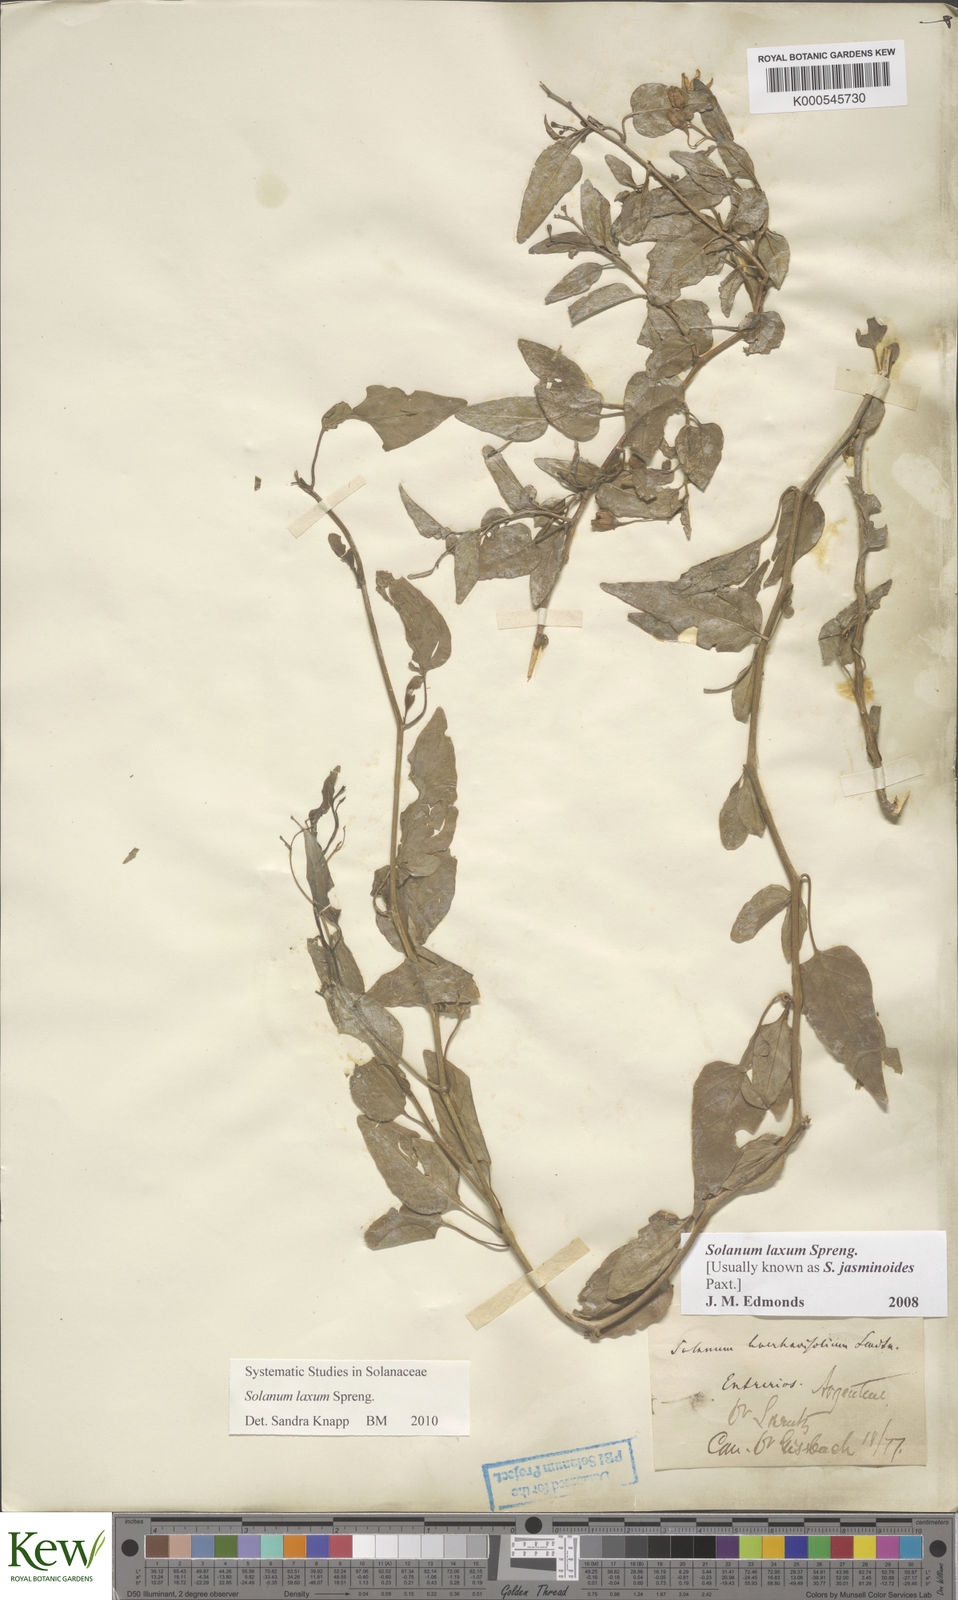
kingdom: Plantae
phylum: Tracheophyta
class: Magnoliopsida
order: Solanales
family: Solanaceae
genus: Solanum
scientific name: Solanum laxum
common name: Nightshade
